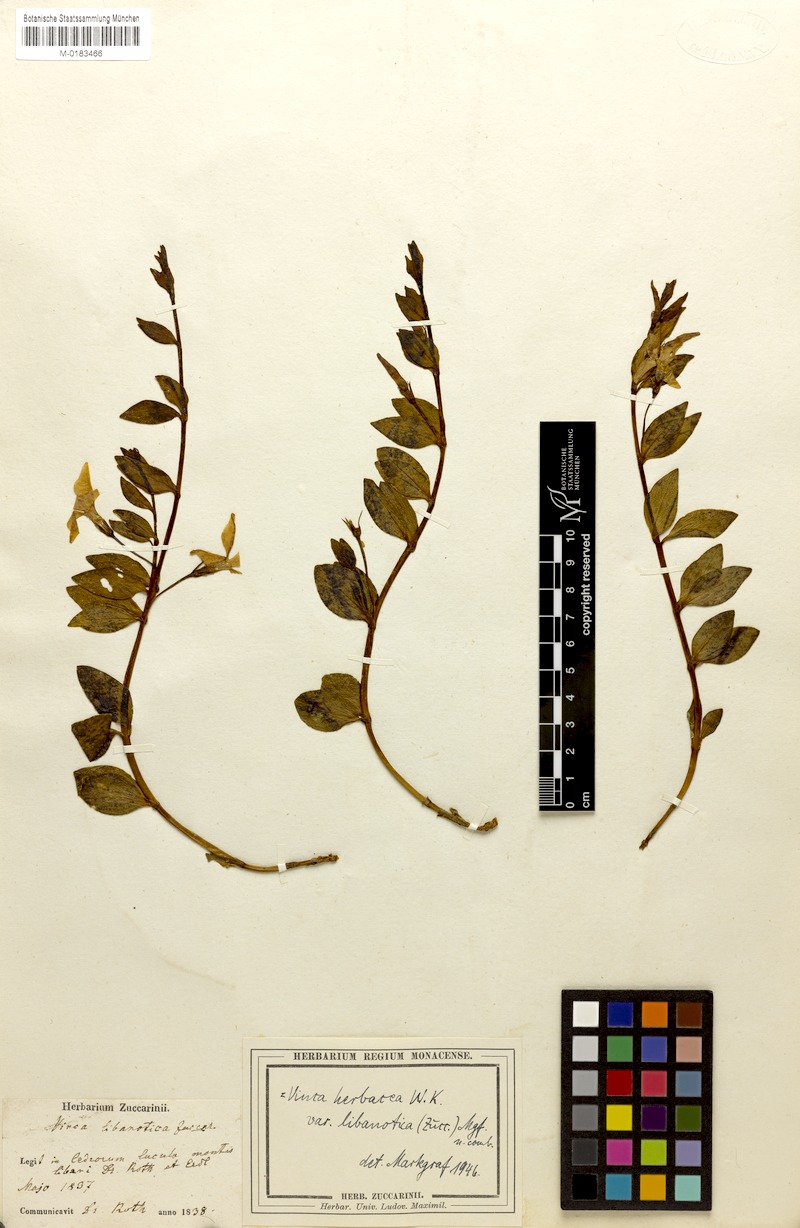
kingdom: Plantae
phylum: Tracheophyta
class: Magnoliopsida
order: Gentianales
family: Apocynaceae
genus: Vinca
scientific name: Vinca herbacea
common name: Herbaceous periwinkle
